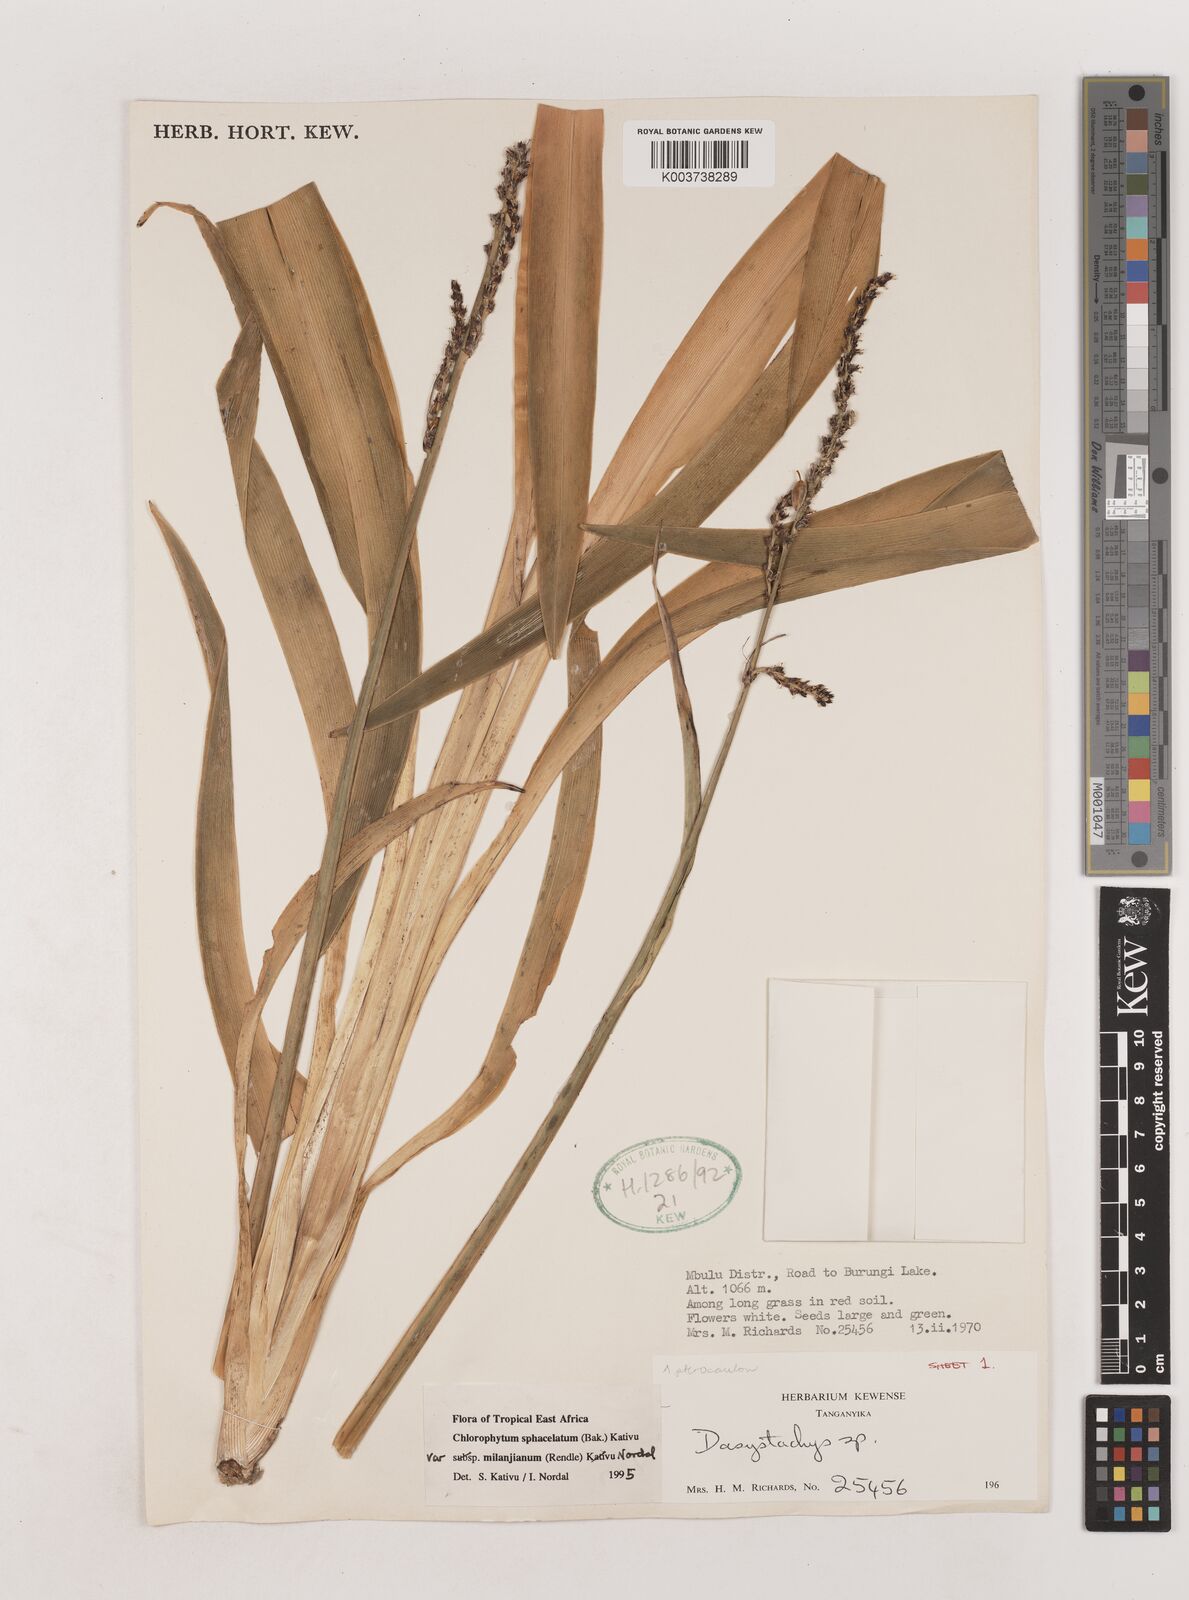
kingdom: Plantae
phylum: Tracheophyta
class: Liliopsida
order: Asparagales
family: Asparagaceae
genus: Chlorophytum
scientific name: Chlorophytum sphacelatum
